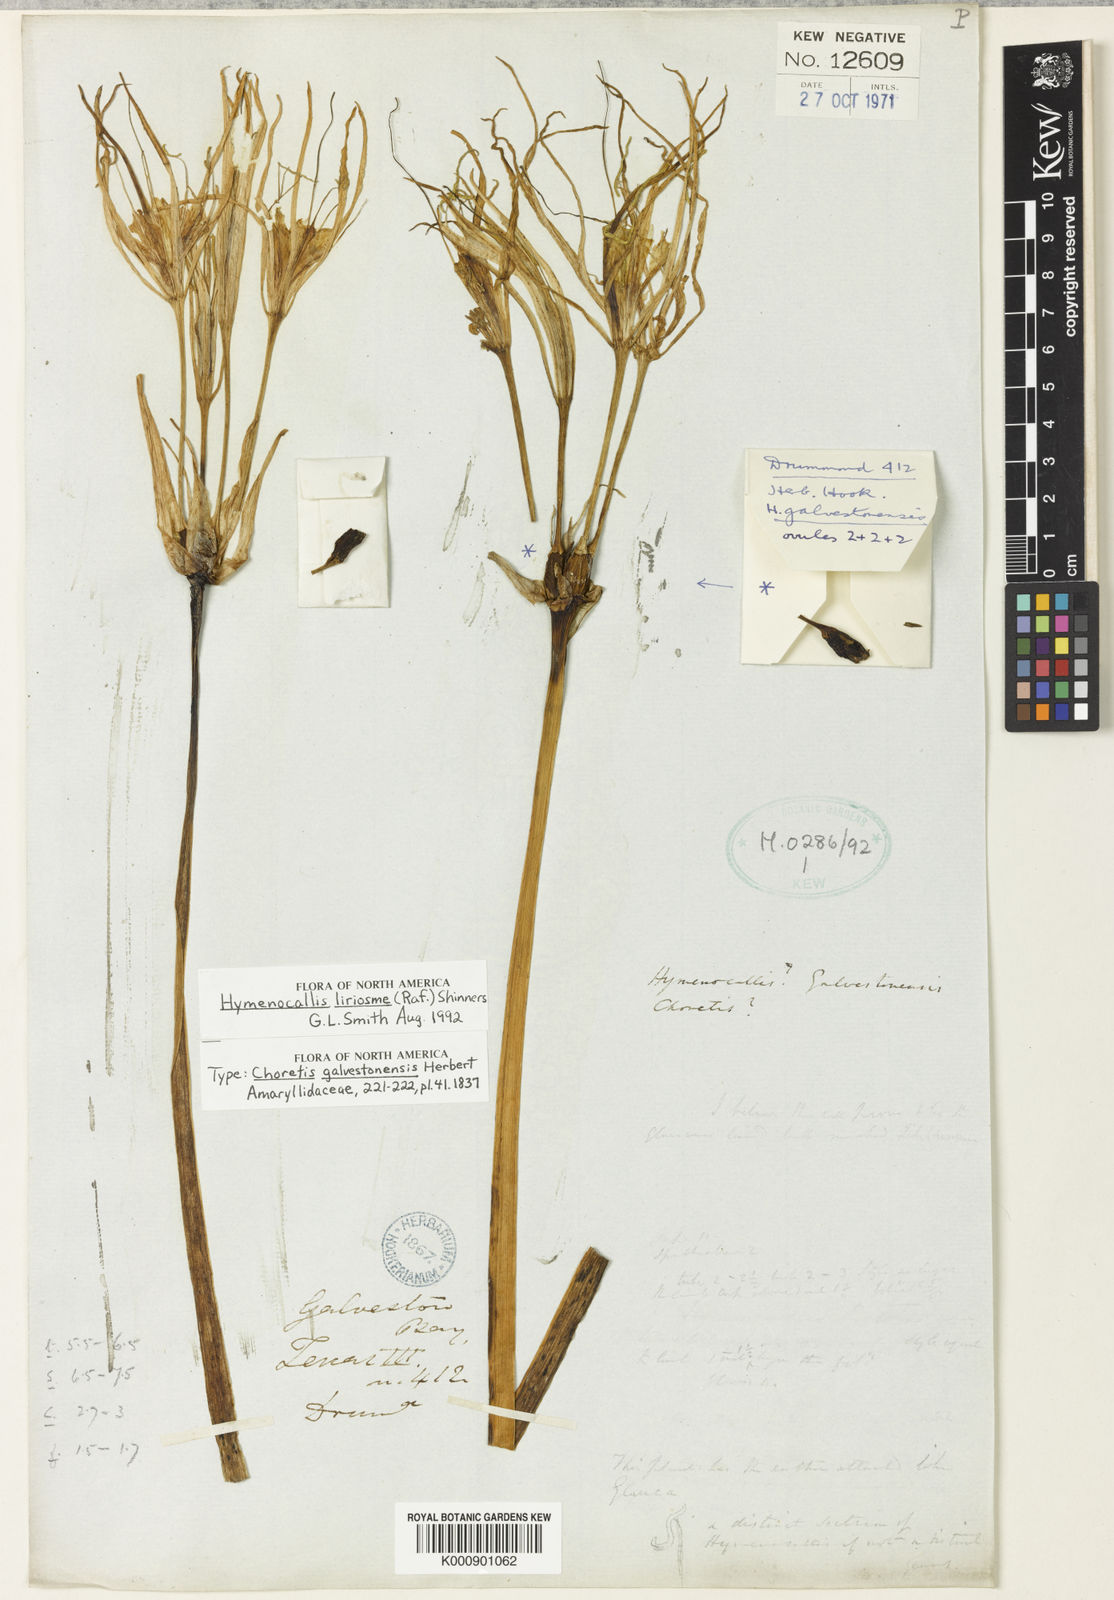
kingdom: Plantae
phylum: Tracheophyta
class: Liliopsida
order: Asparagales
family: Amaryllidaceae
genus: Hymenocallis
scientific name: Hymenocallis liriosme
